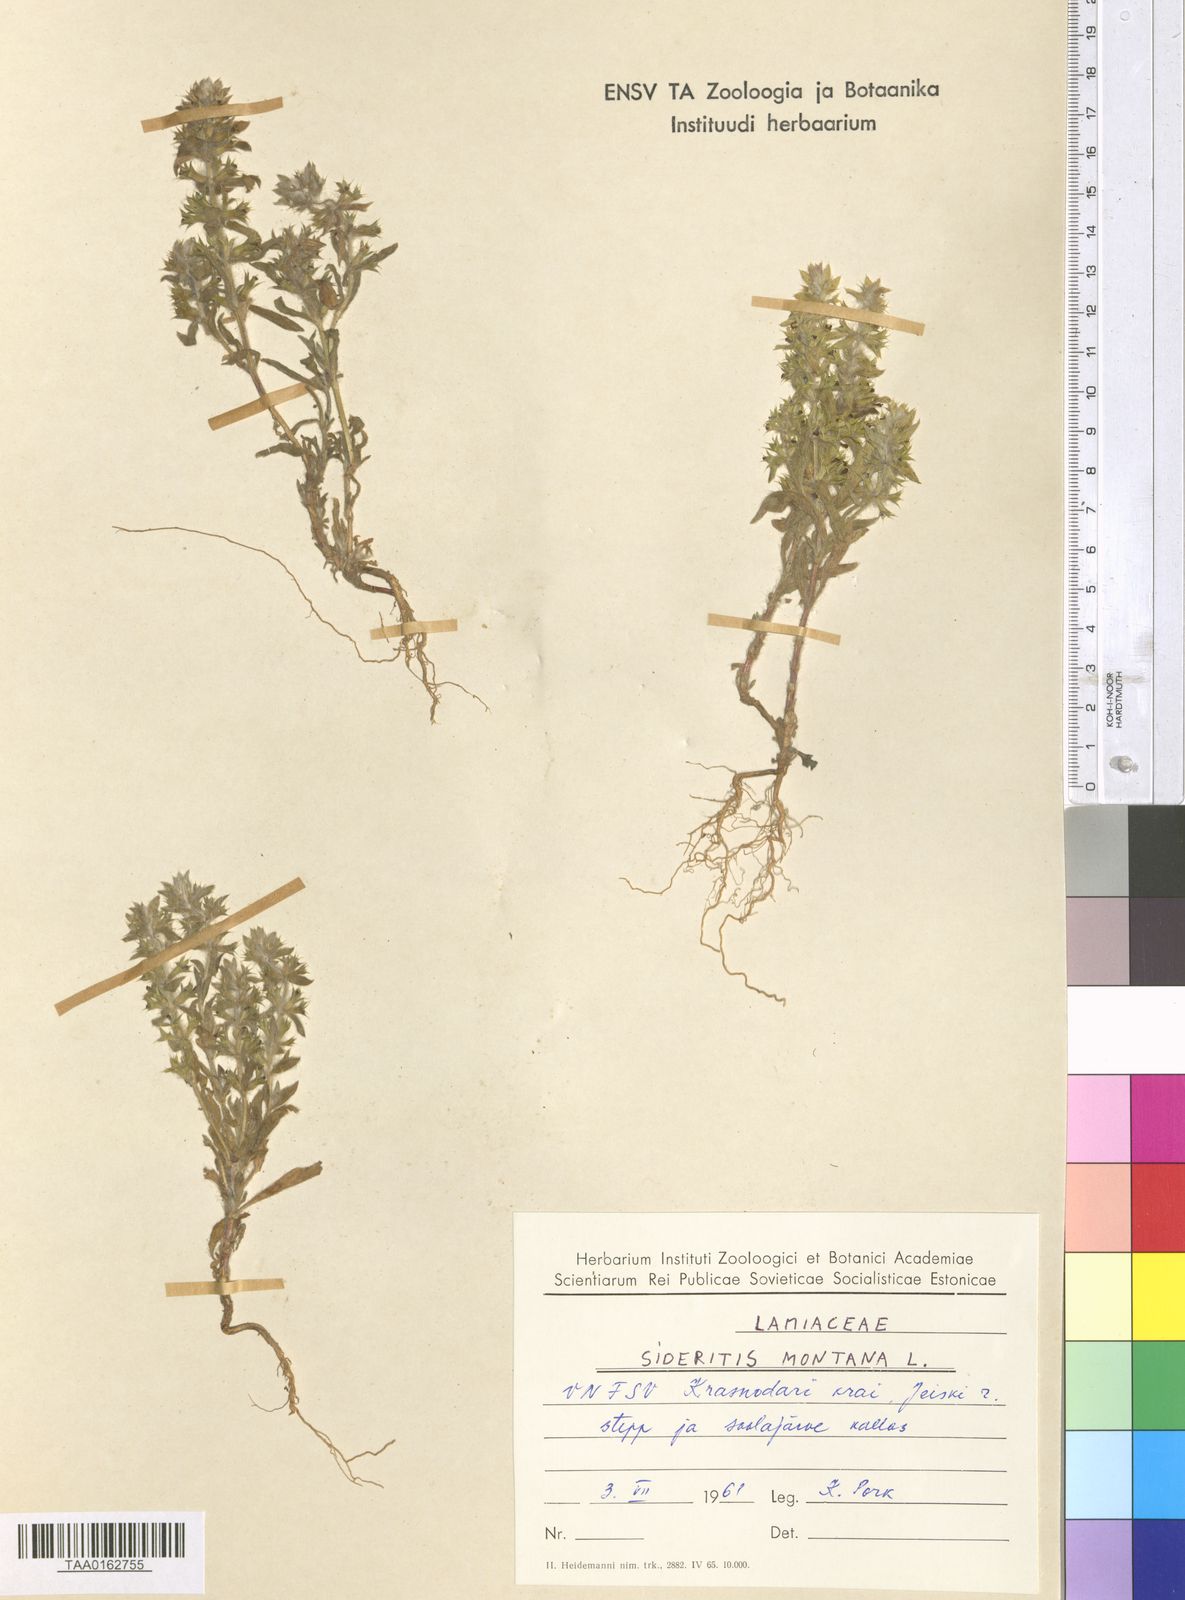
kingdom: Plantae
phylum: Tracheophyta
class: Magnoliopsida
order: Lamiales
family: Lamiaceae
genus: Sideritis
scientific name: Sideritis montana
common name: Mountain ironwort
